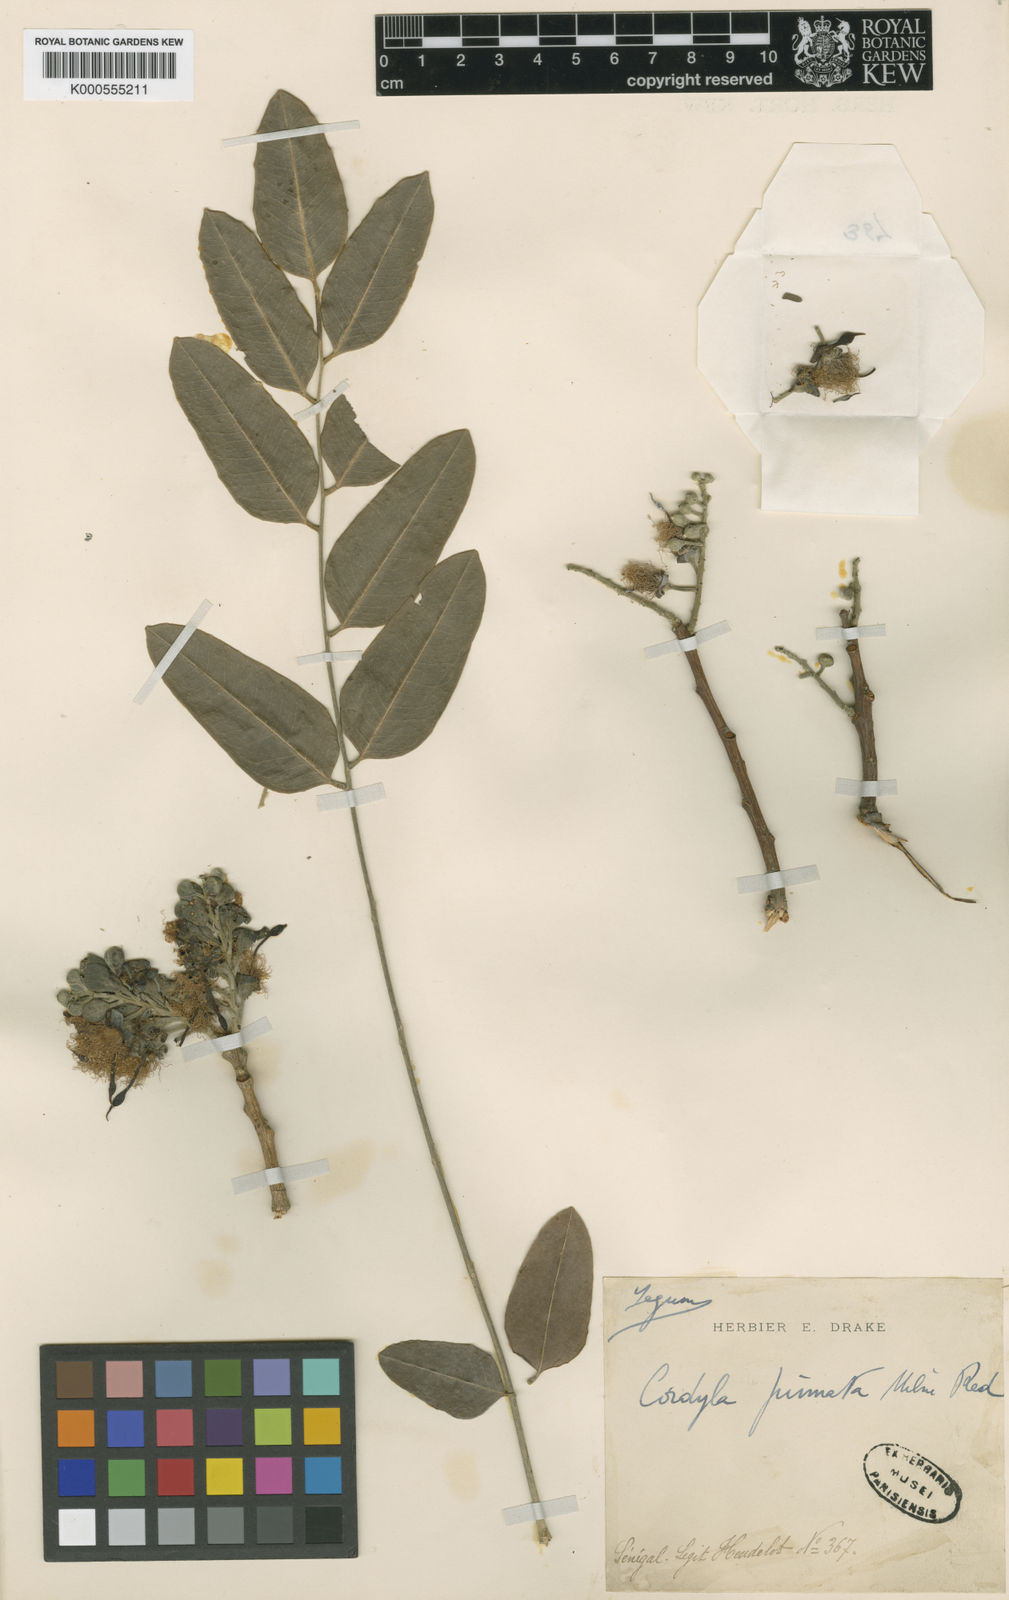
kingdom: Plantae
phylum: Tracheophyta
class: Magnoliopsida
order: Fabales
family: Fabaceae
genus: Cordyla
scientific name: Cordyla pinnata
